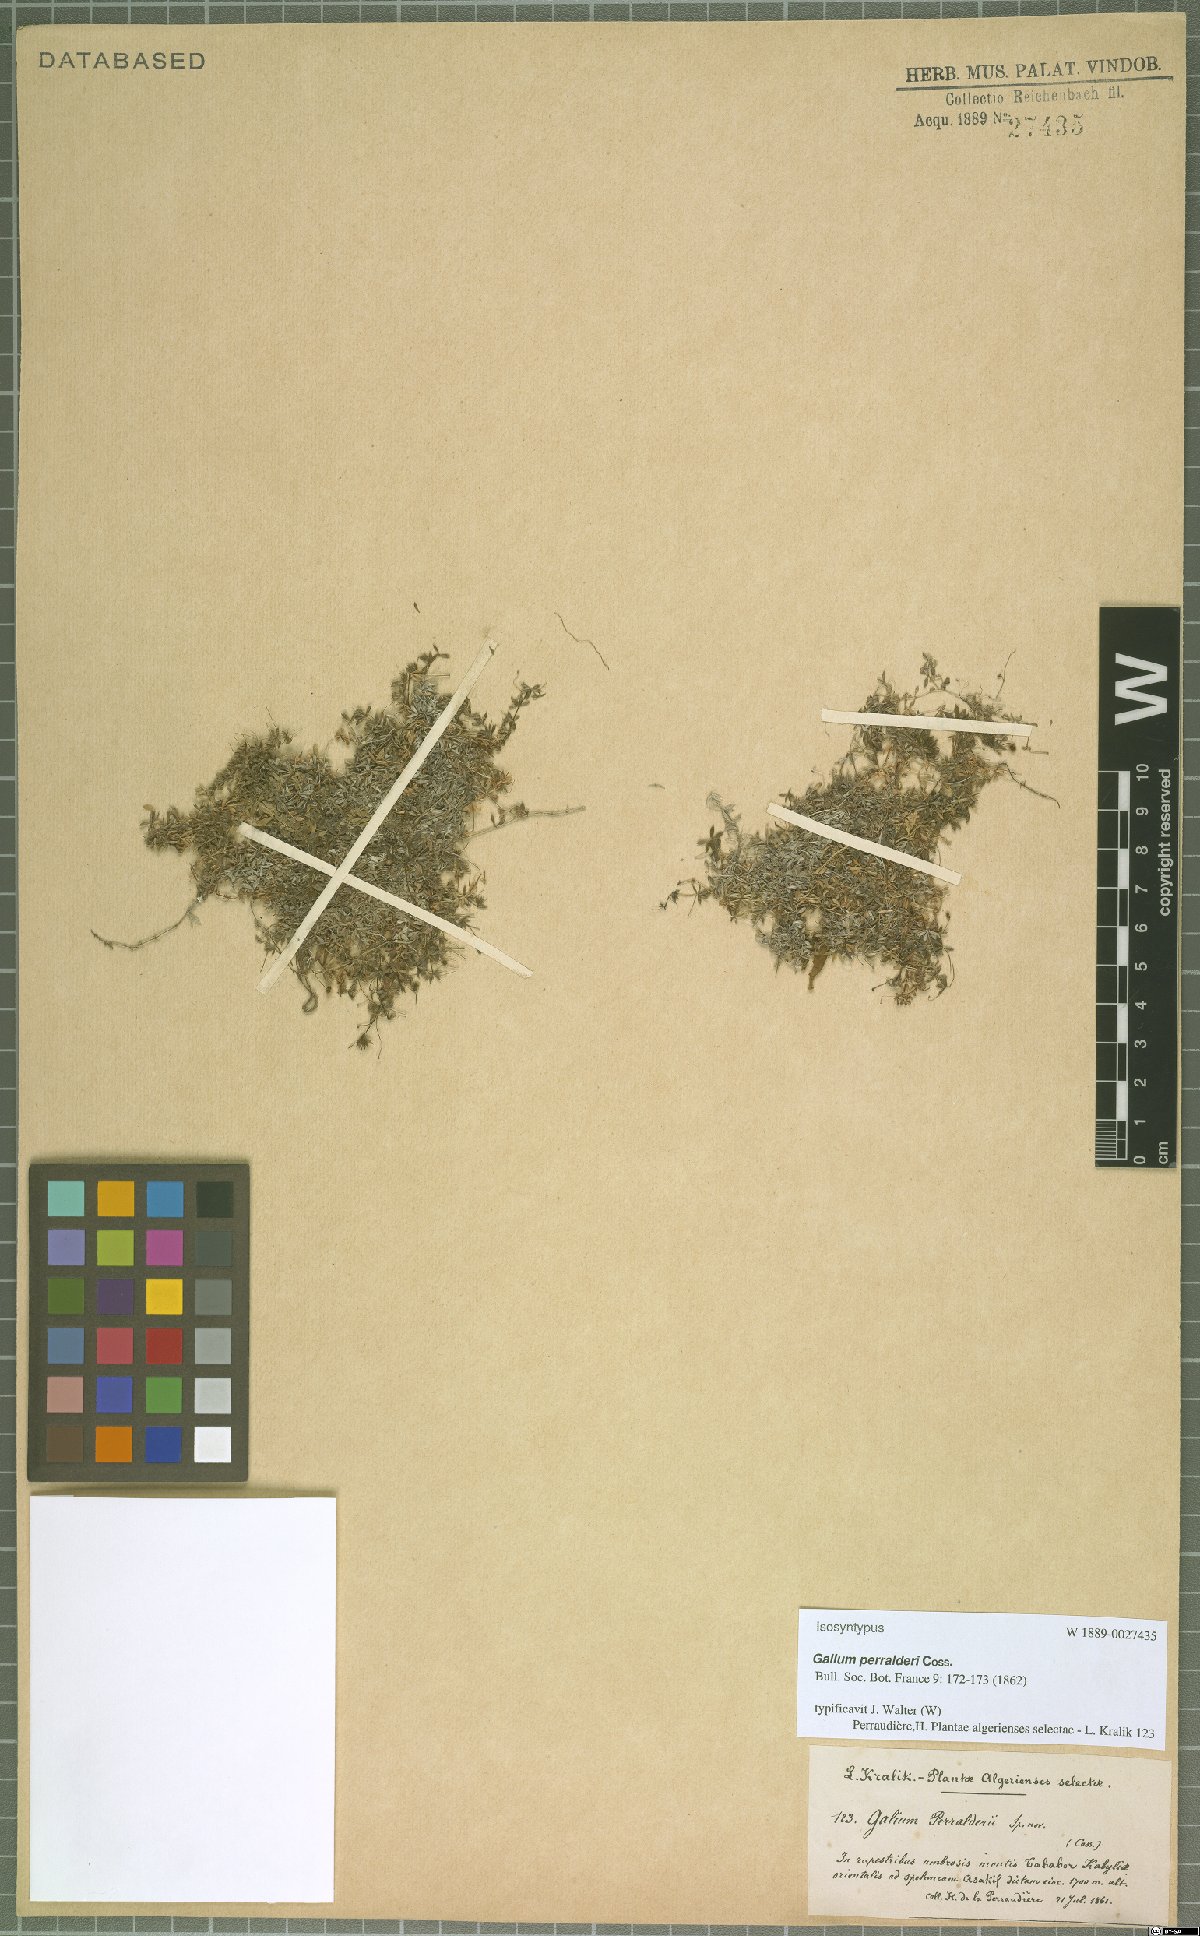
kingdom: Plantae
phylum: Tracheophyta
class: Magnoliopsida
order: Gentianales
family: Rubiaceae
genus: Galium
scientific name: Galium perralderii
